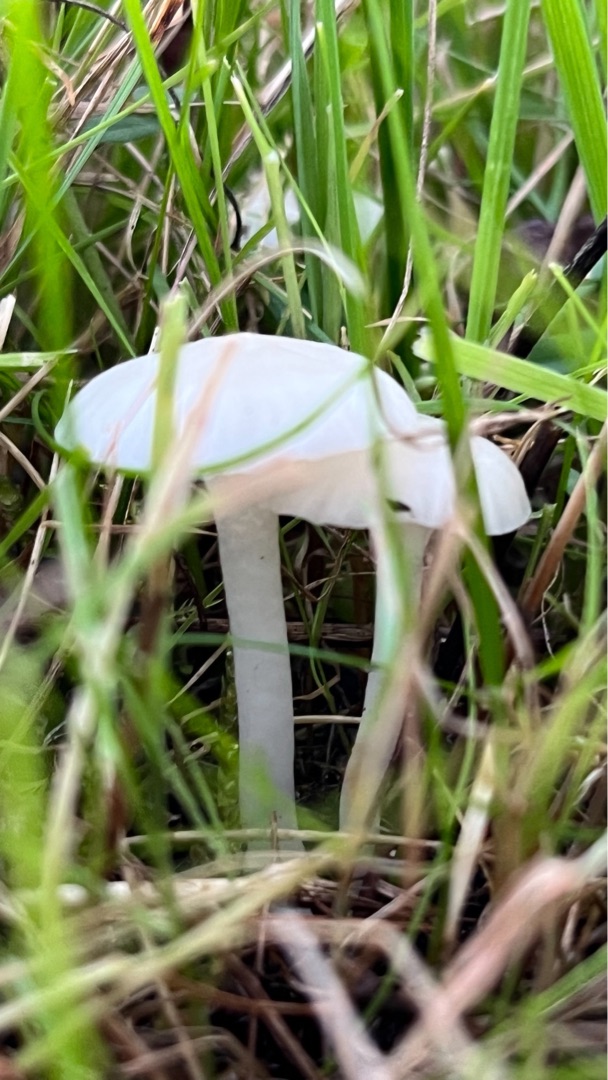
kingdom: Fungi
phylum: Basidiomycota
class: Agaricomycetes
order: Agaricales
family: Hygrophoraceae
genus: Cuphophyllus
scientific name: Cuphophyllus virgineus
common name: Snehvid vokshat
